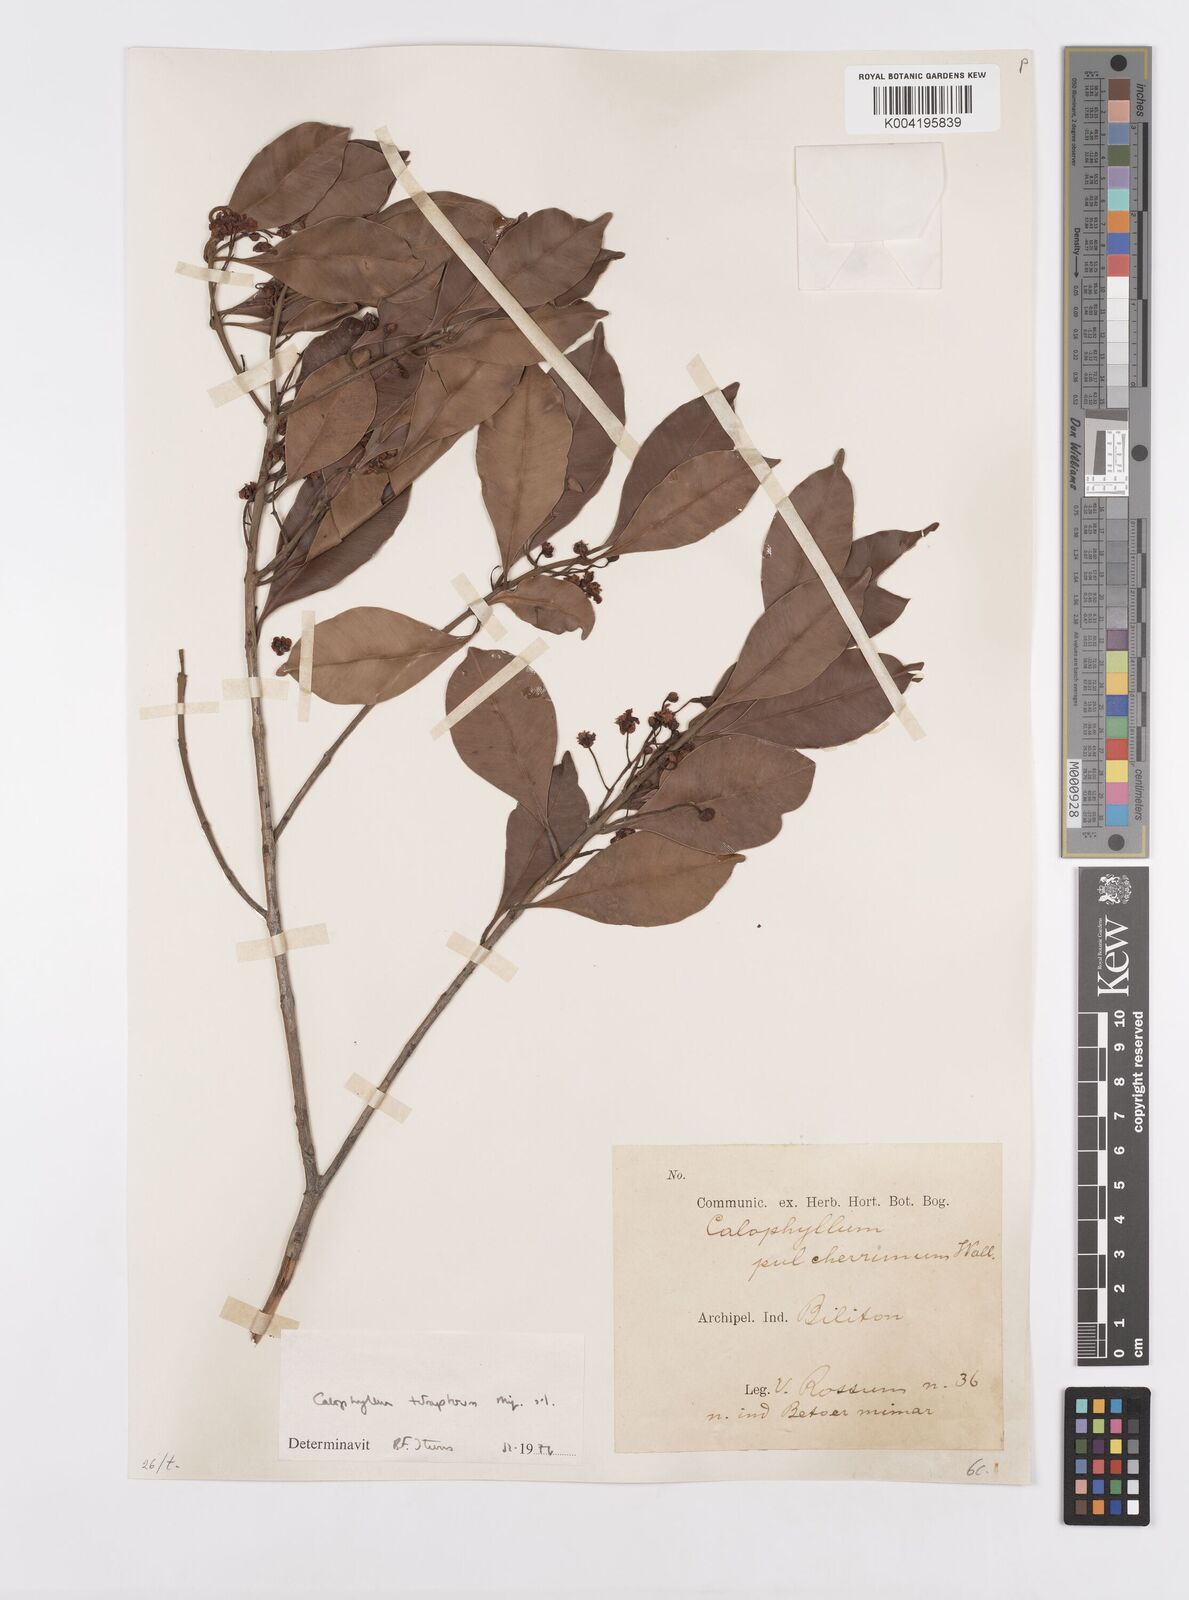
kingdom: Plantae
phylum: Tracheophyta
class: Magnoliopsida
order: Malpighiales
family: Calophyllaceae
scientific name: Calophyllaceae
